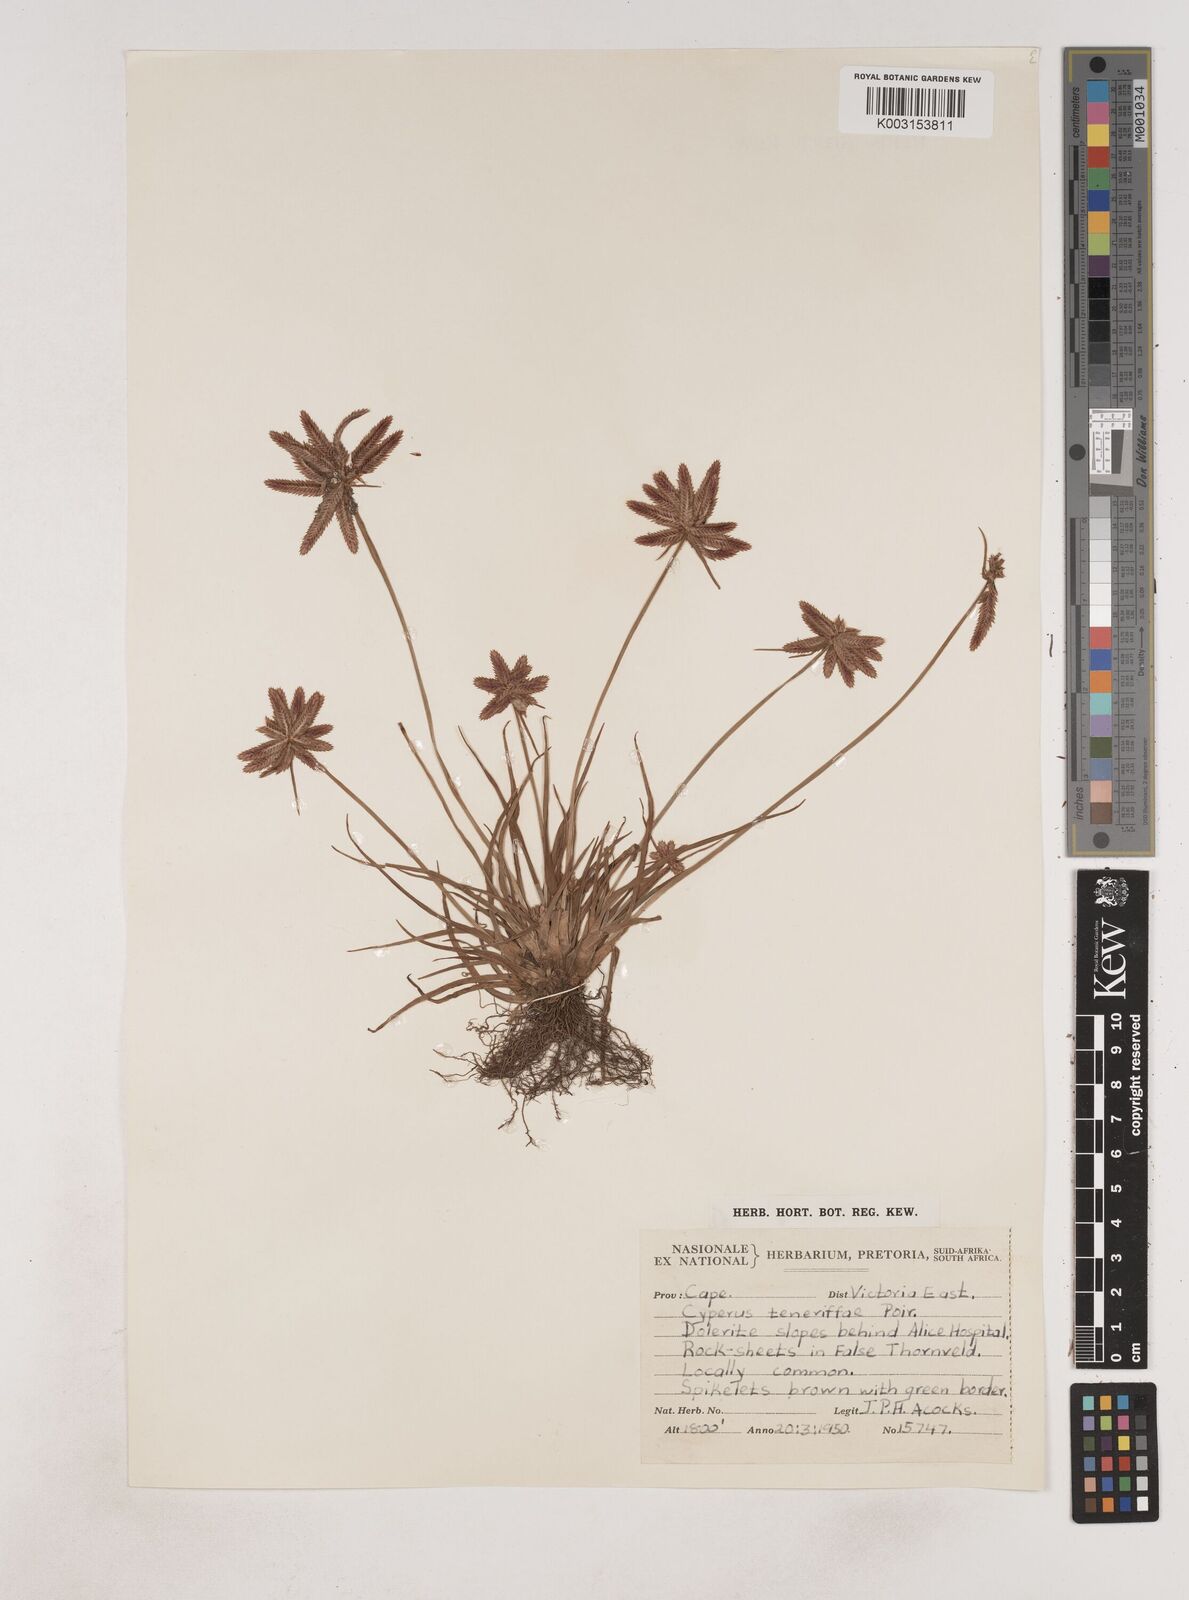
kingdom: Plantae
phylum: Tracheophyta
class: Liliopsida
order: Poales
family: Cyperaceae
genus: Cyperus
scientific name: Cyperus rubicundus
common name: Coco-grass
